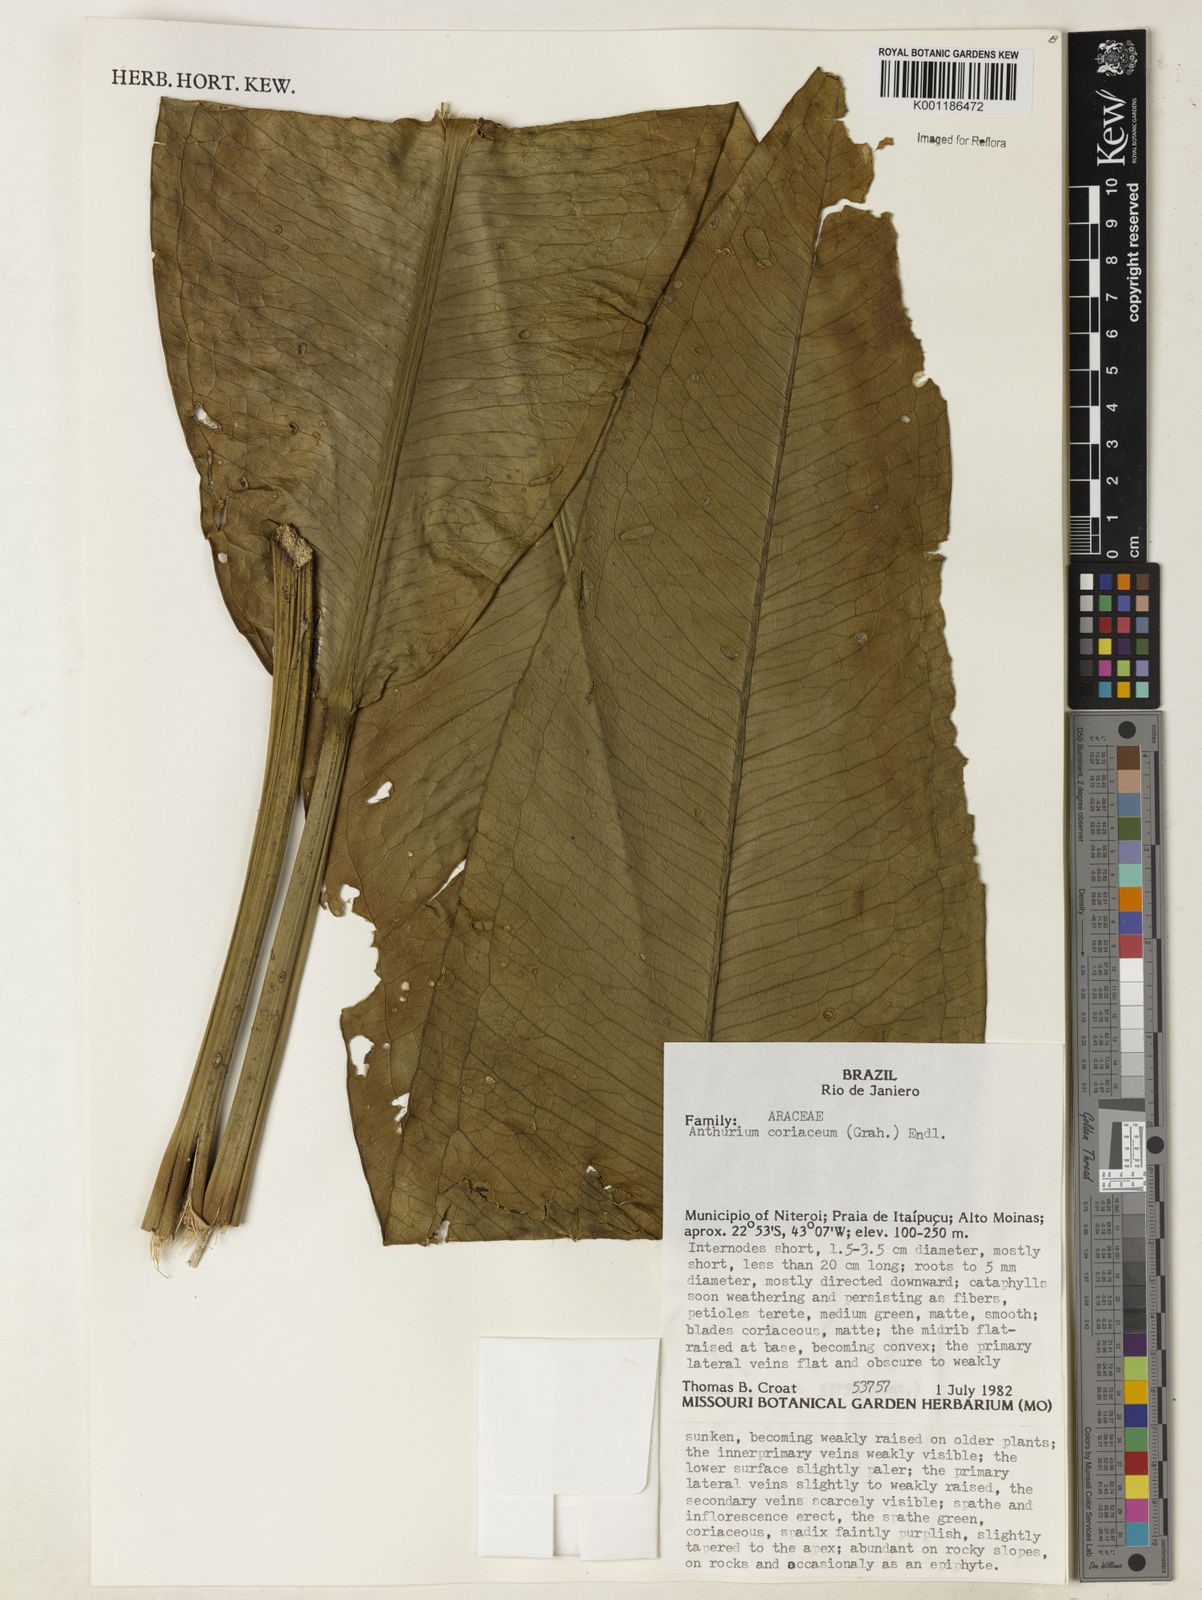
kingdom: Plantae
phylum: Tracheophyta
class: Liliopsida
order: Alismatales
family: Araceae
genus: Anthurium
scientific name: Anthurium coriaceum
